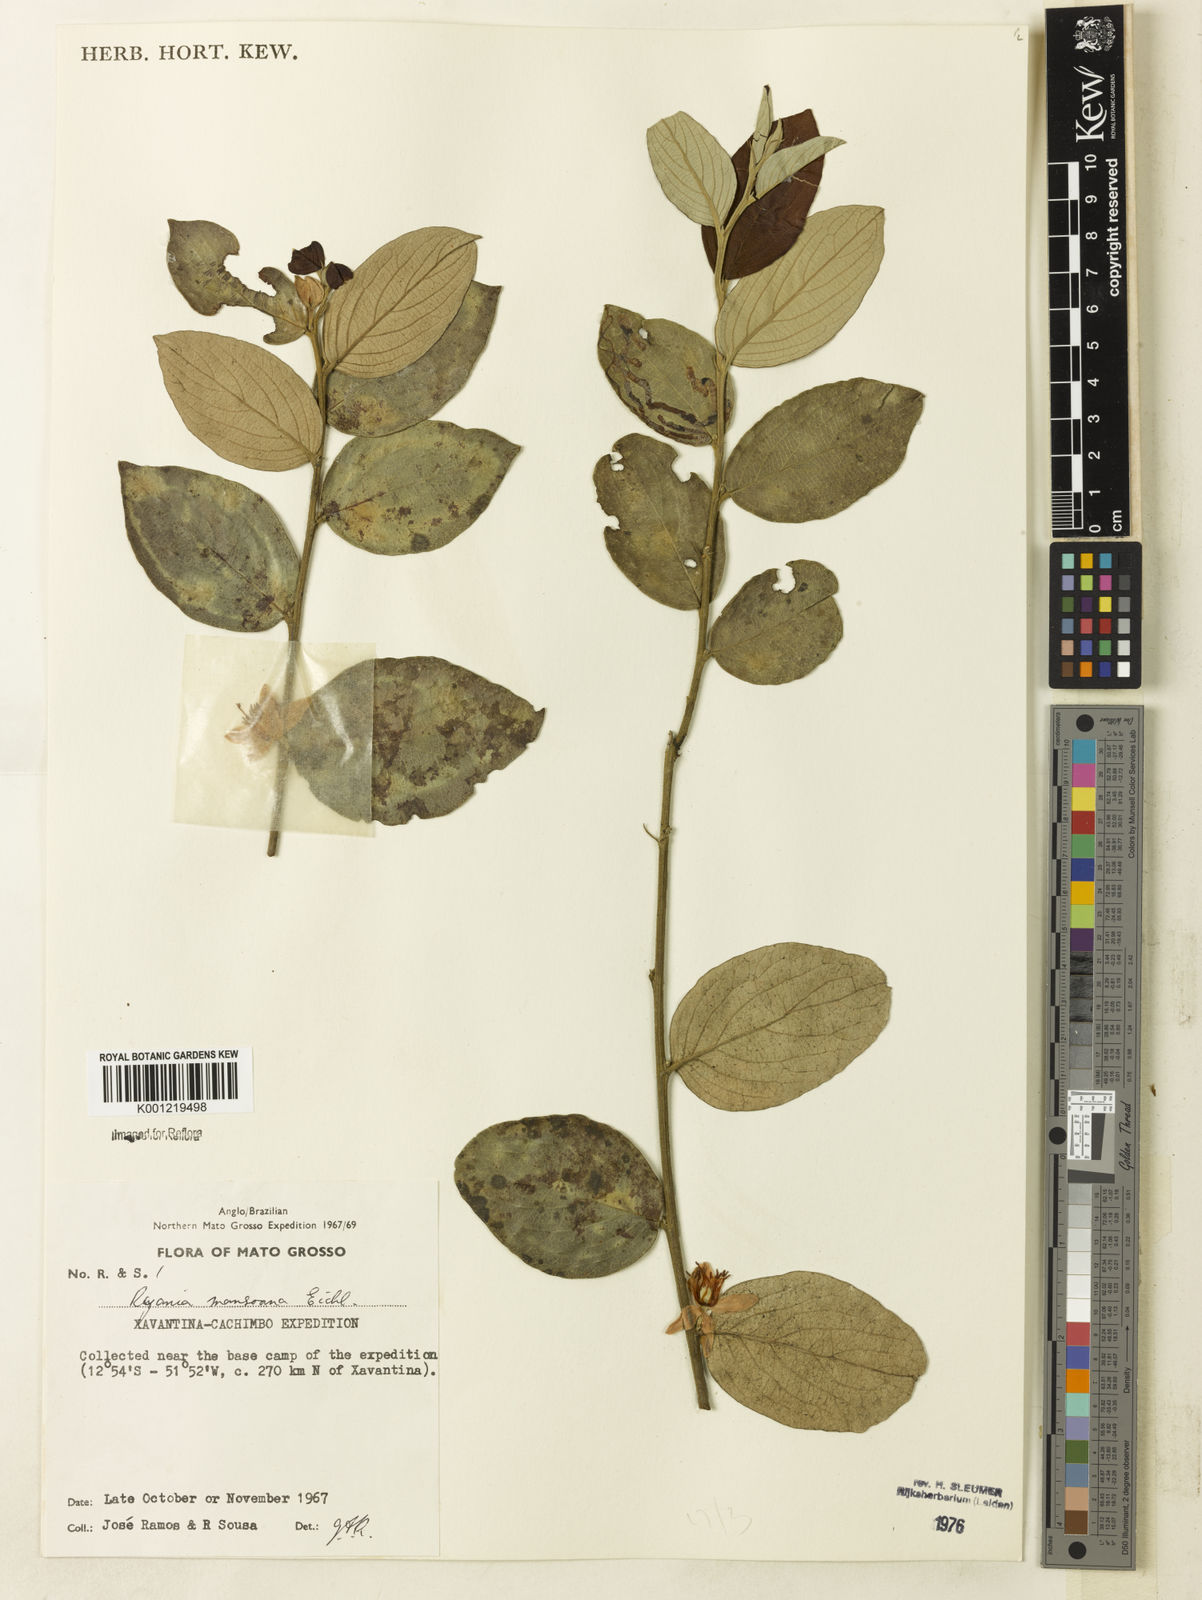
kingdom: Plantae
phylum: Tracheophyta
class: Magnoliopsida
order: Malpighiales
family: Salicaceae
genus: Ryania
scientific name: Ryania mansoana
